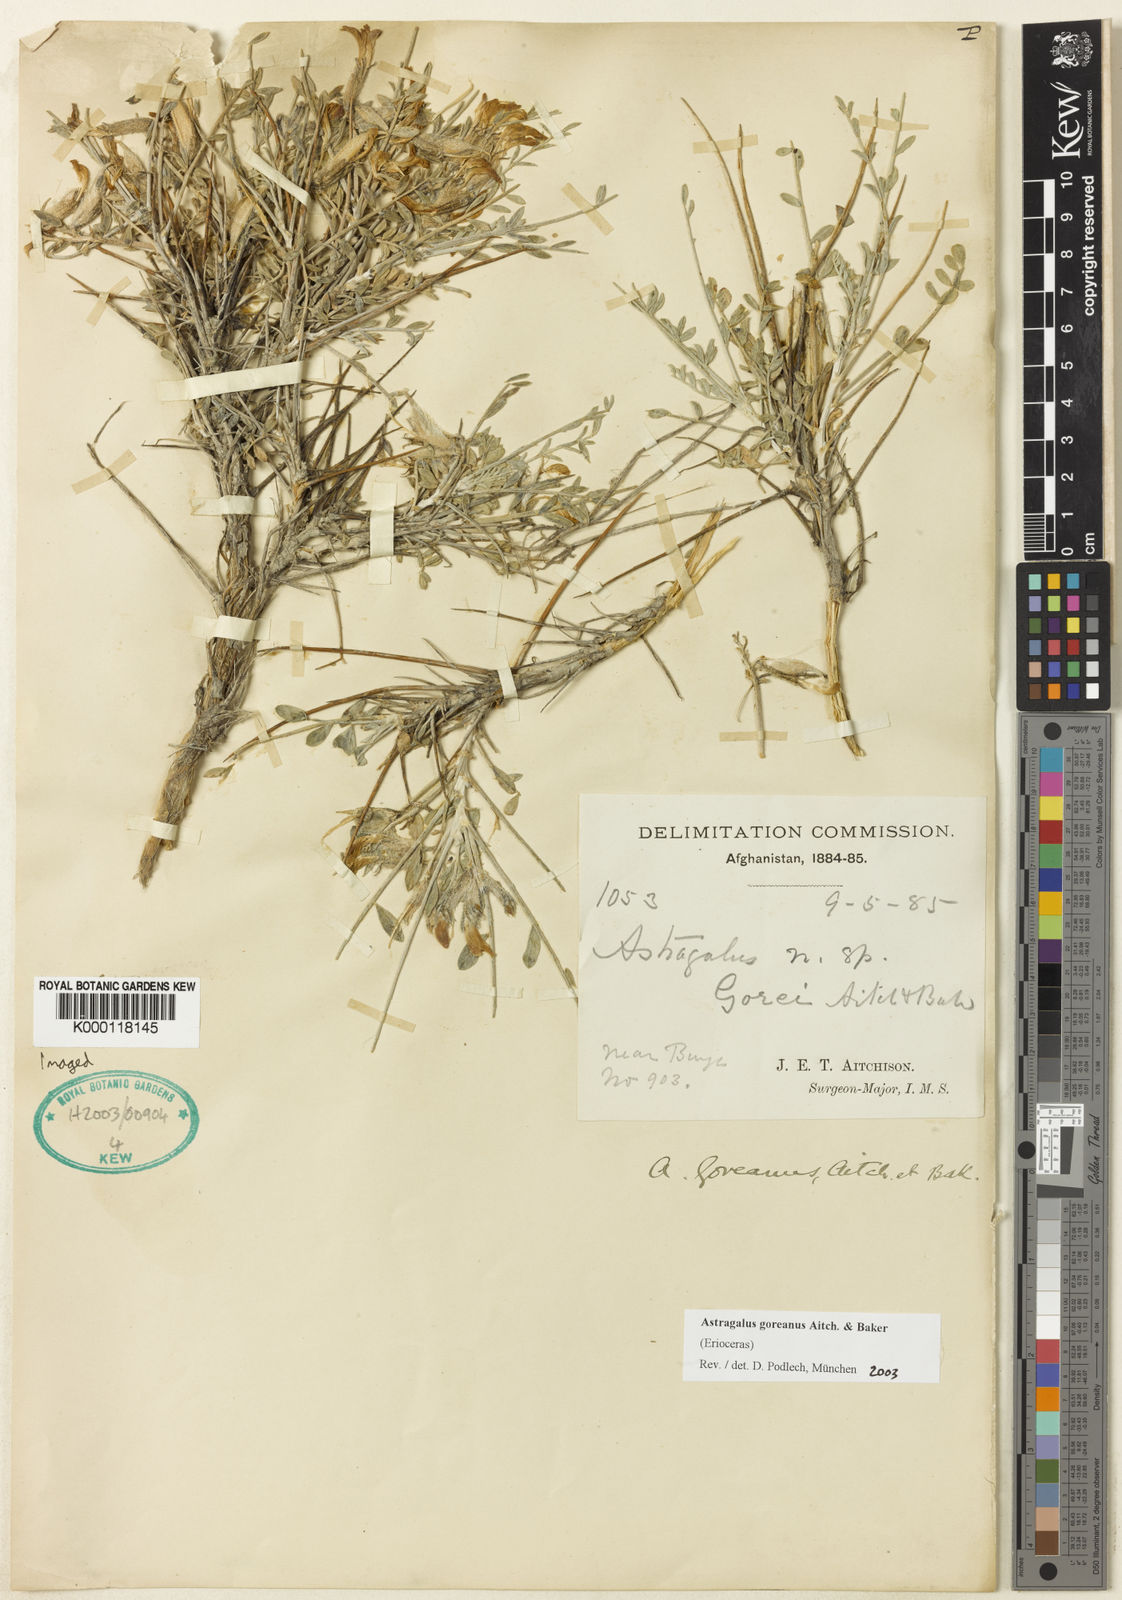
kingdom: Plantae
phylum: Tracheophyta
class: Magnoliopsida
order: Fabales
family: Fabaceae
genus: Astragalus
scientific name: Astragalus
